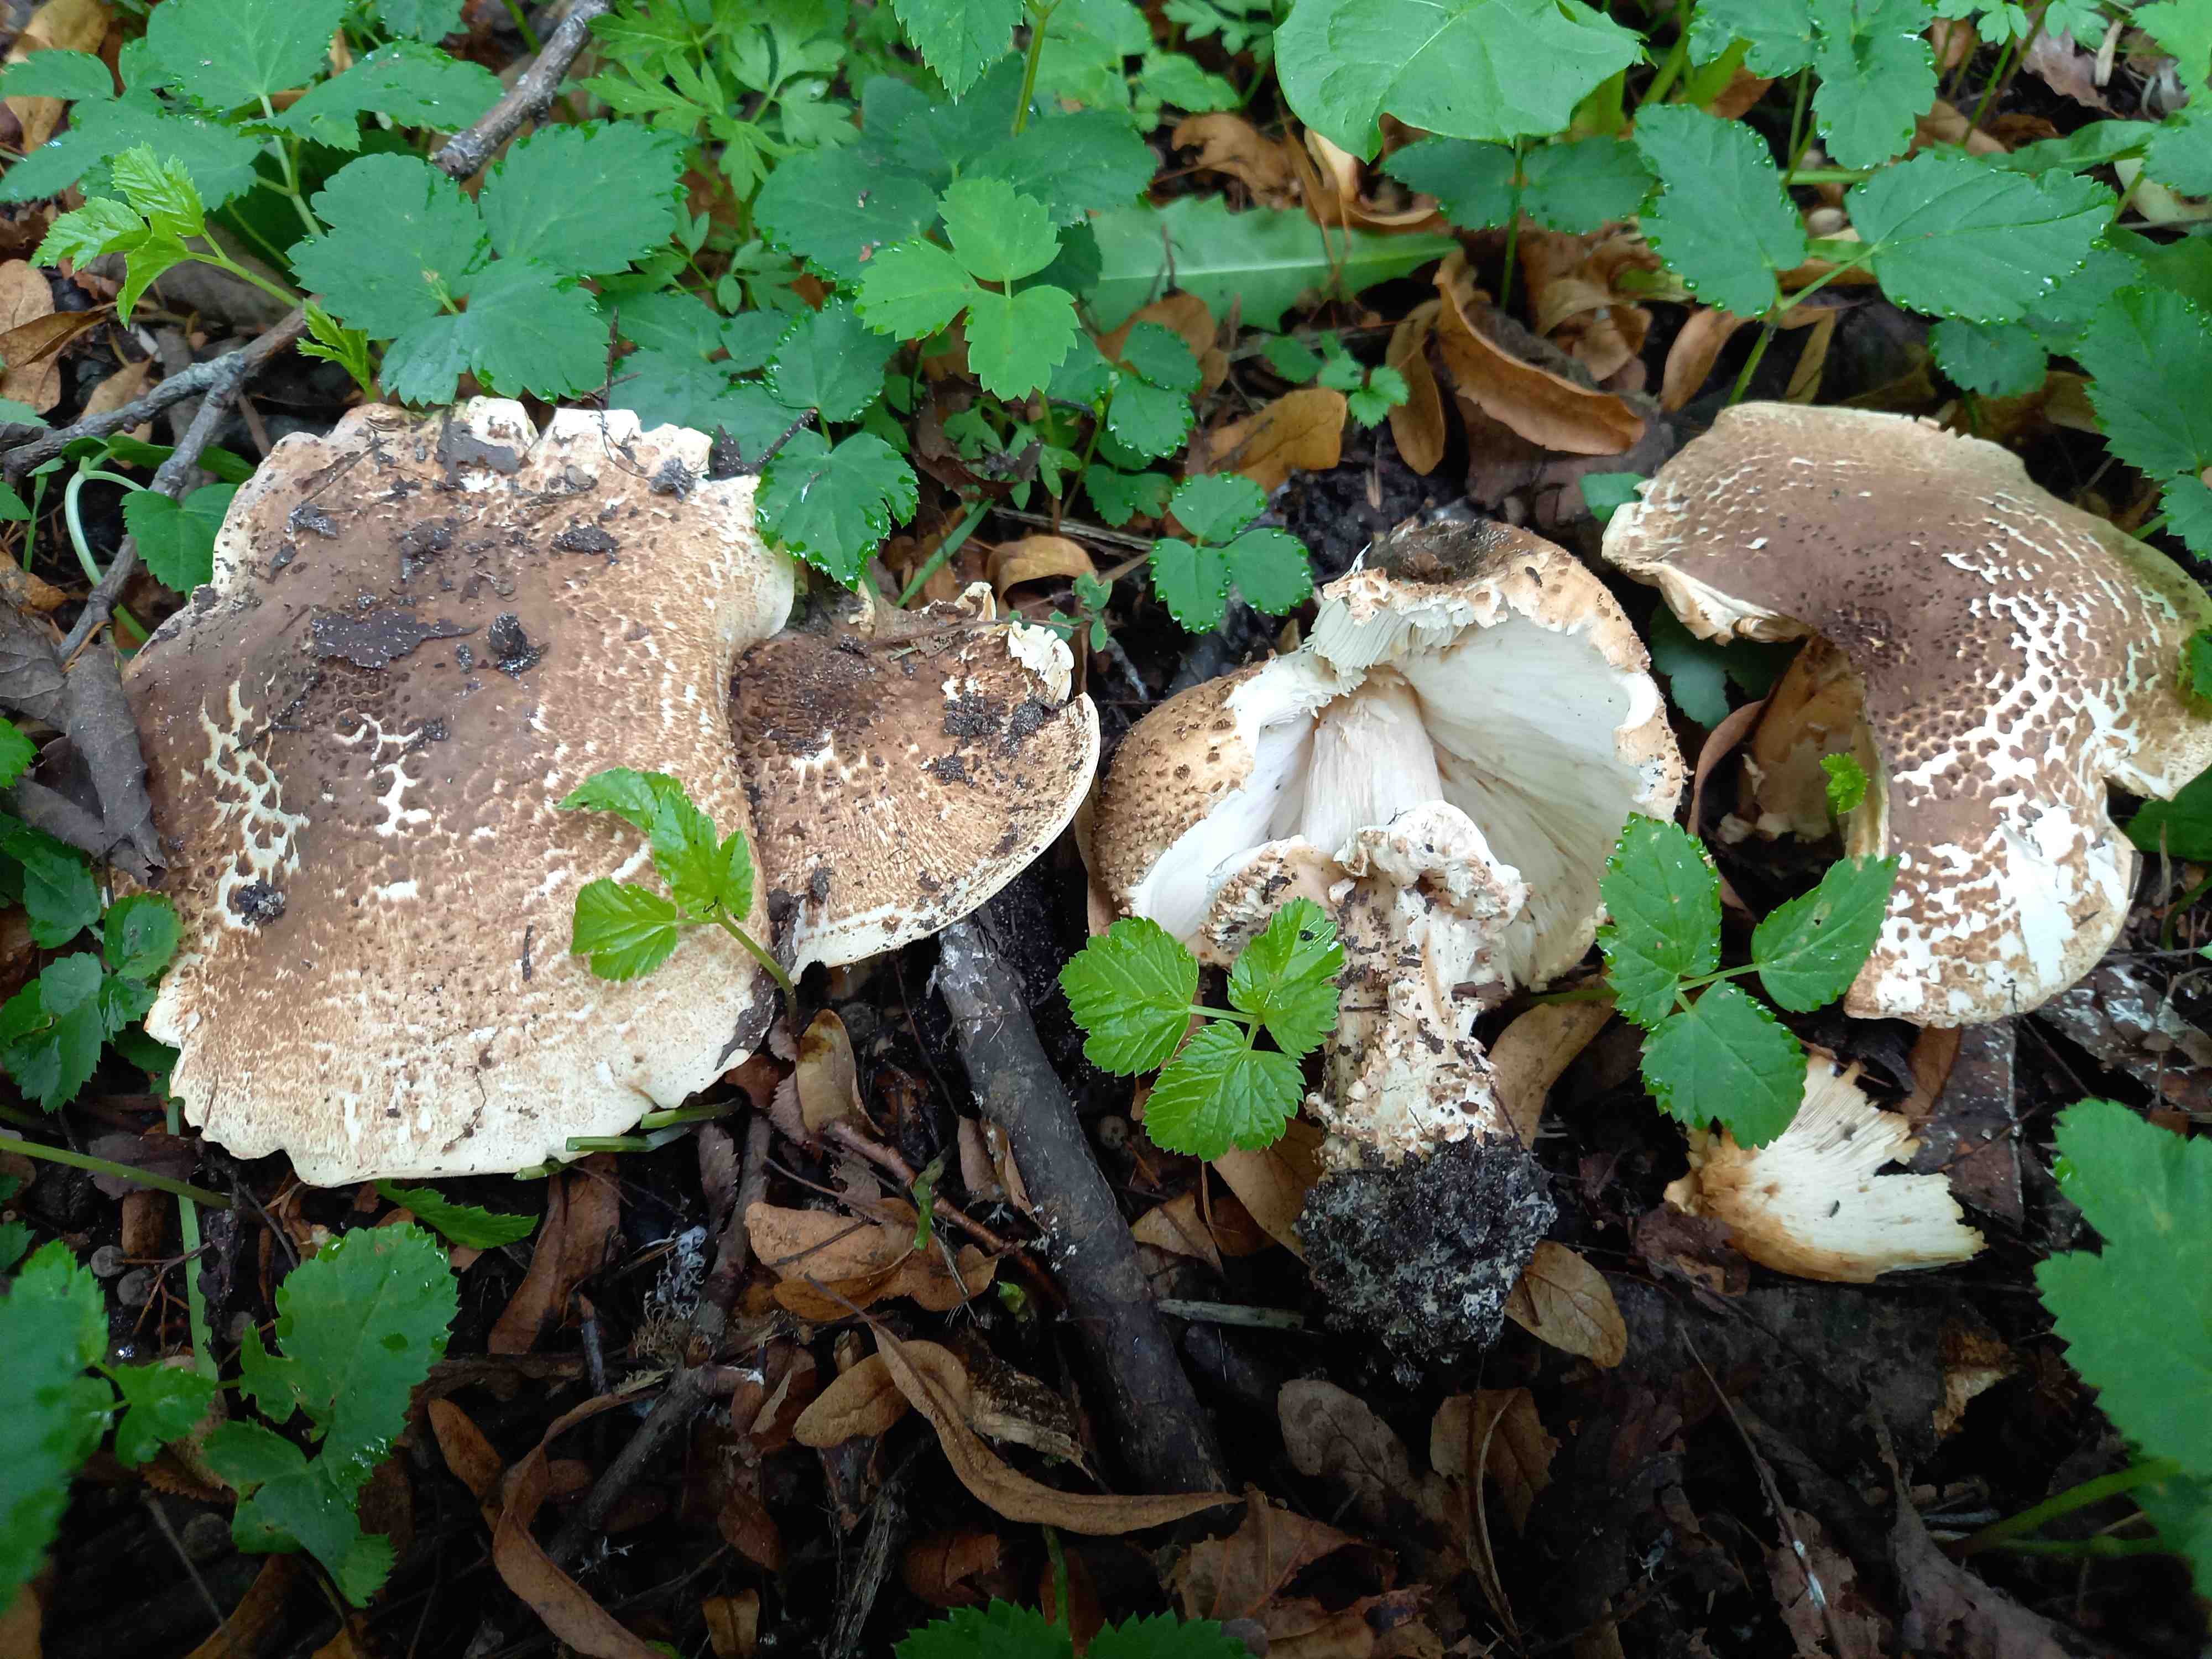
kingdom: Fungi
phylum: Basidiomycota
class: Agaricomycetes
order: Agaricales
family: Agaricaceae
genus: Echinoderma
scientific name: Echinoderma asperum
